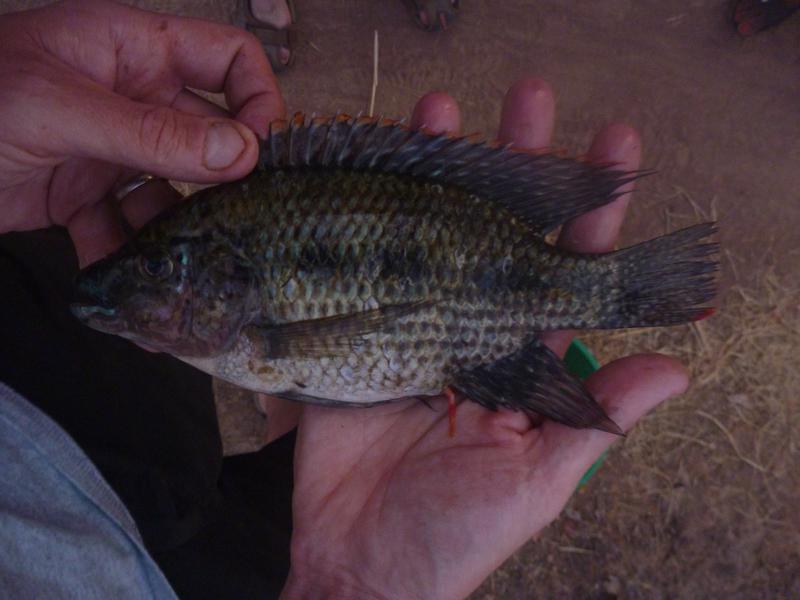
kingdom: Animalia
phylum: Chordata
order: Perciformes
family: Cichlidae
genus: Oreochromis
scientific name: Oreochromis karomo
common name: Karomo
